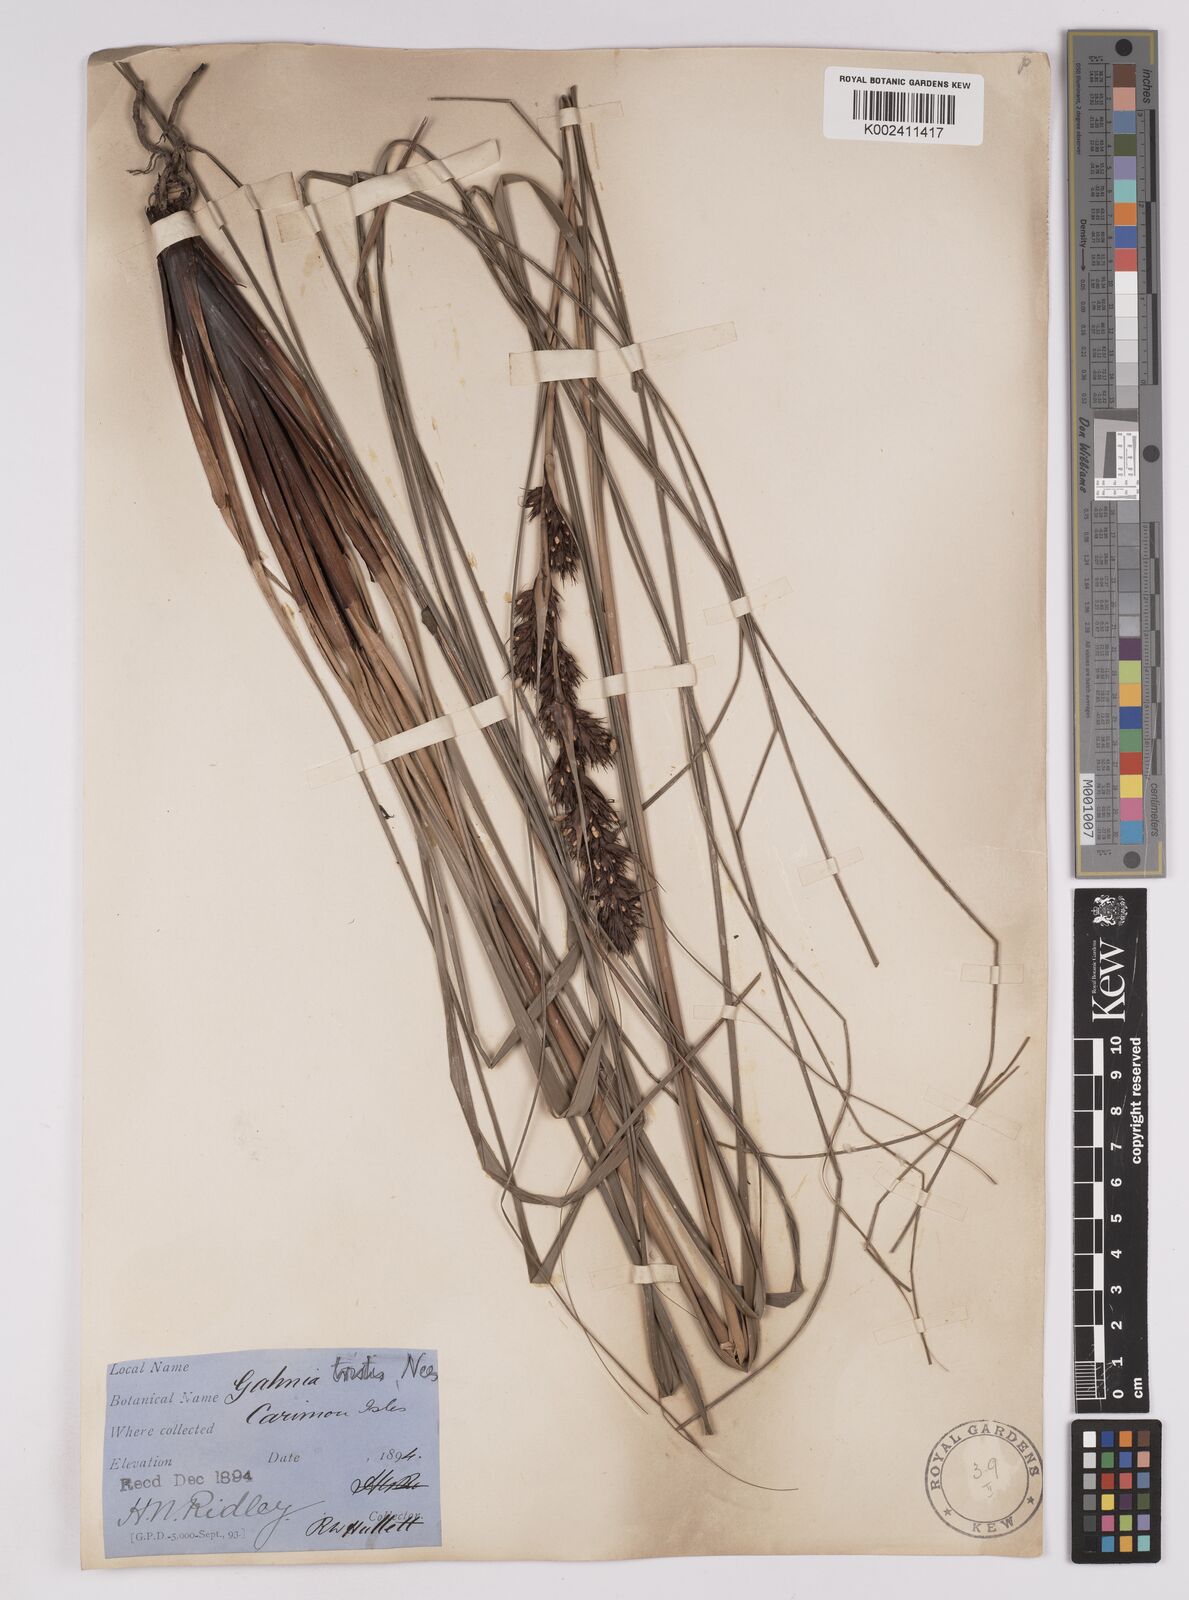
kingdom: Plantae
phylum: Tracheophyta
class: Liliopsida
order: Poales
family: Cyperaceae
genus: Gahnia
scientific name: Gahnia tristis
